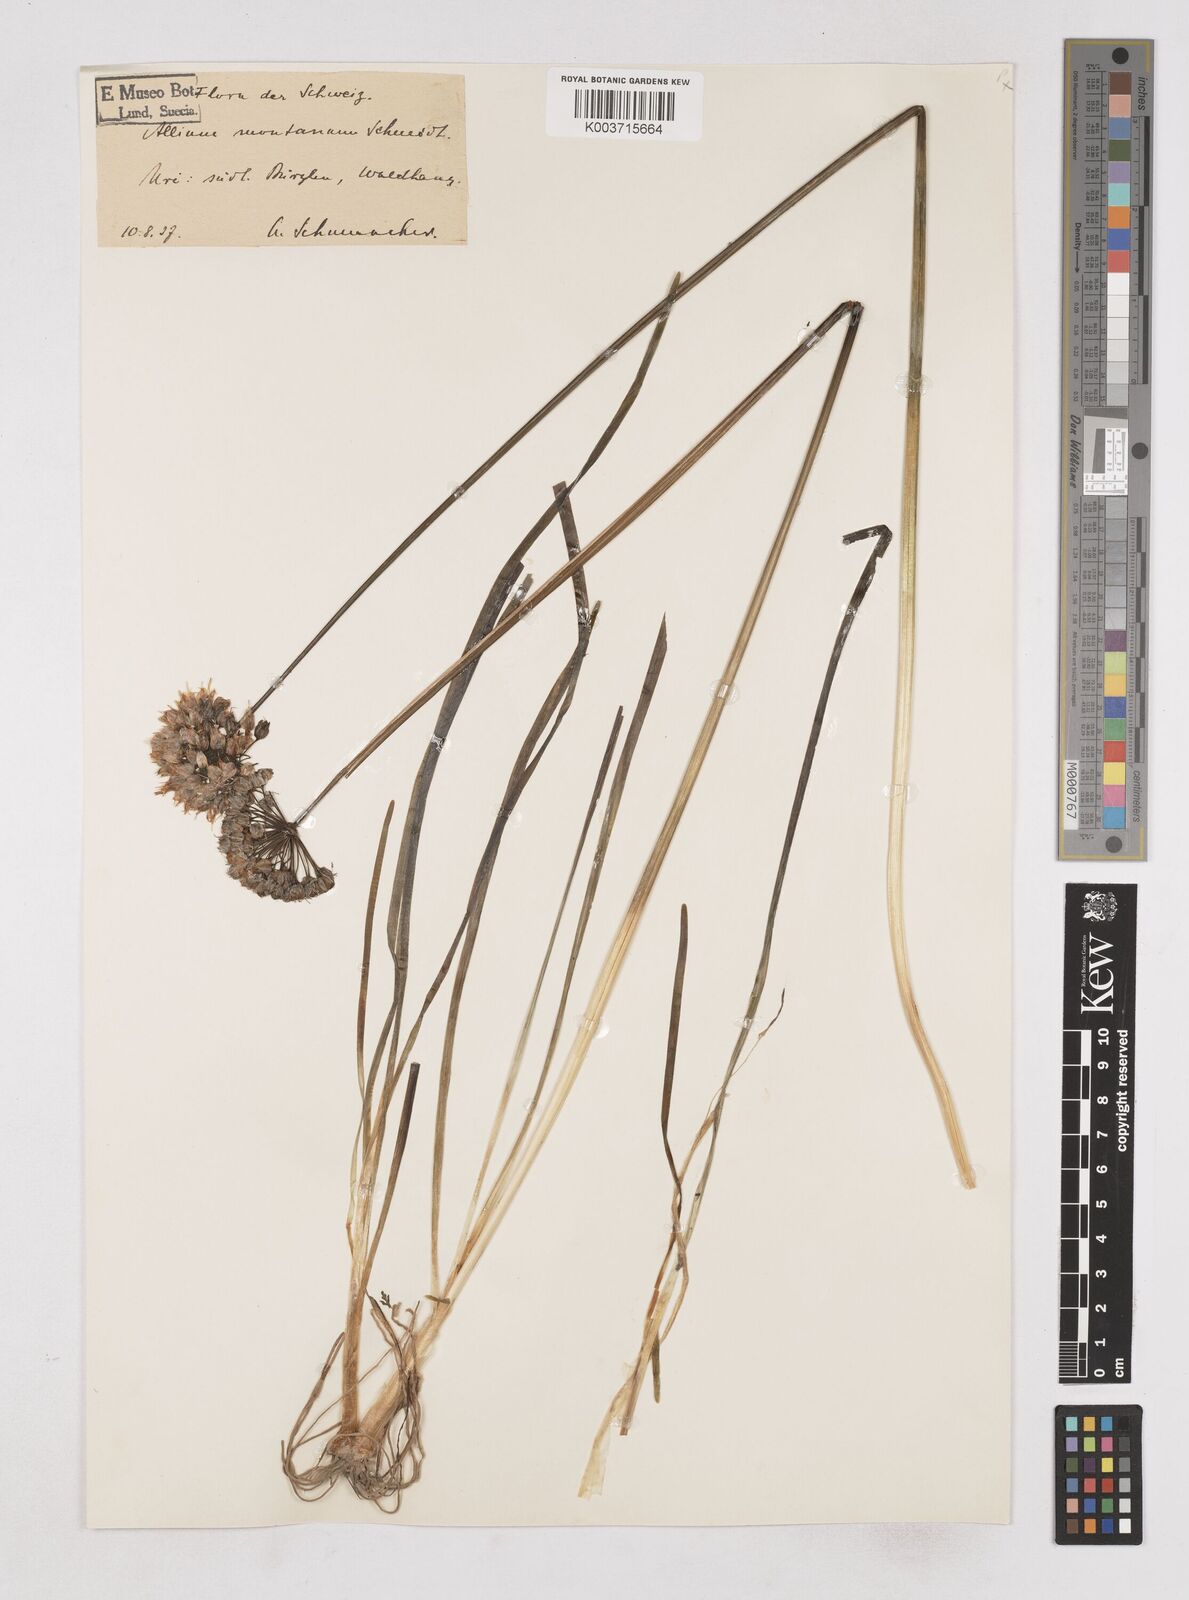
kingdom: Plantae
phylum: Tracheophyta
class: Liliopsida
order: Asparagales
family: Amaryllidaceae
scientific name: Amaryllidaceae
